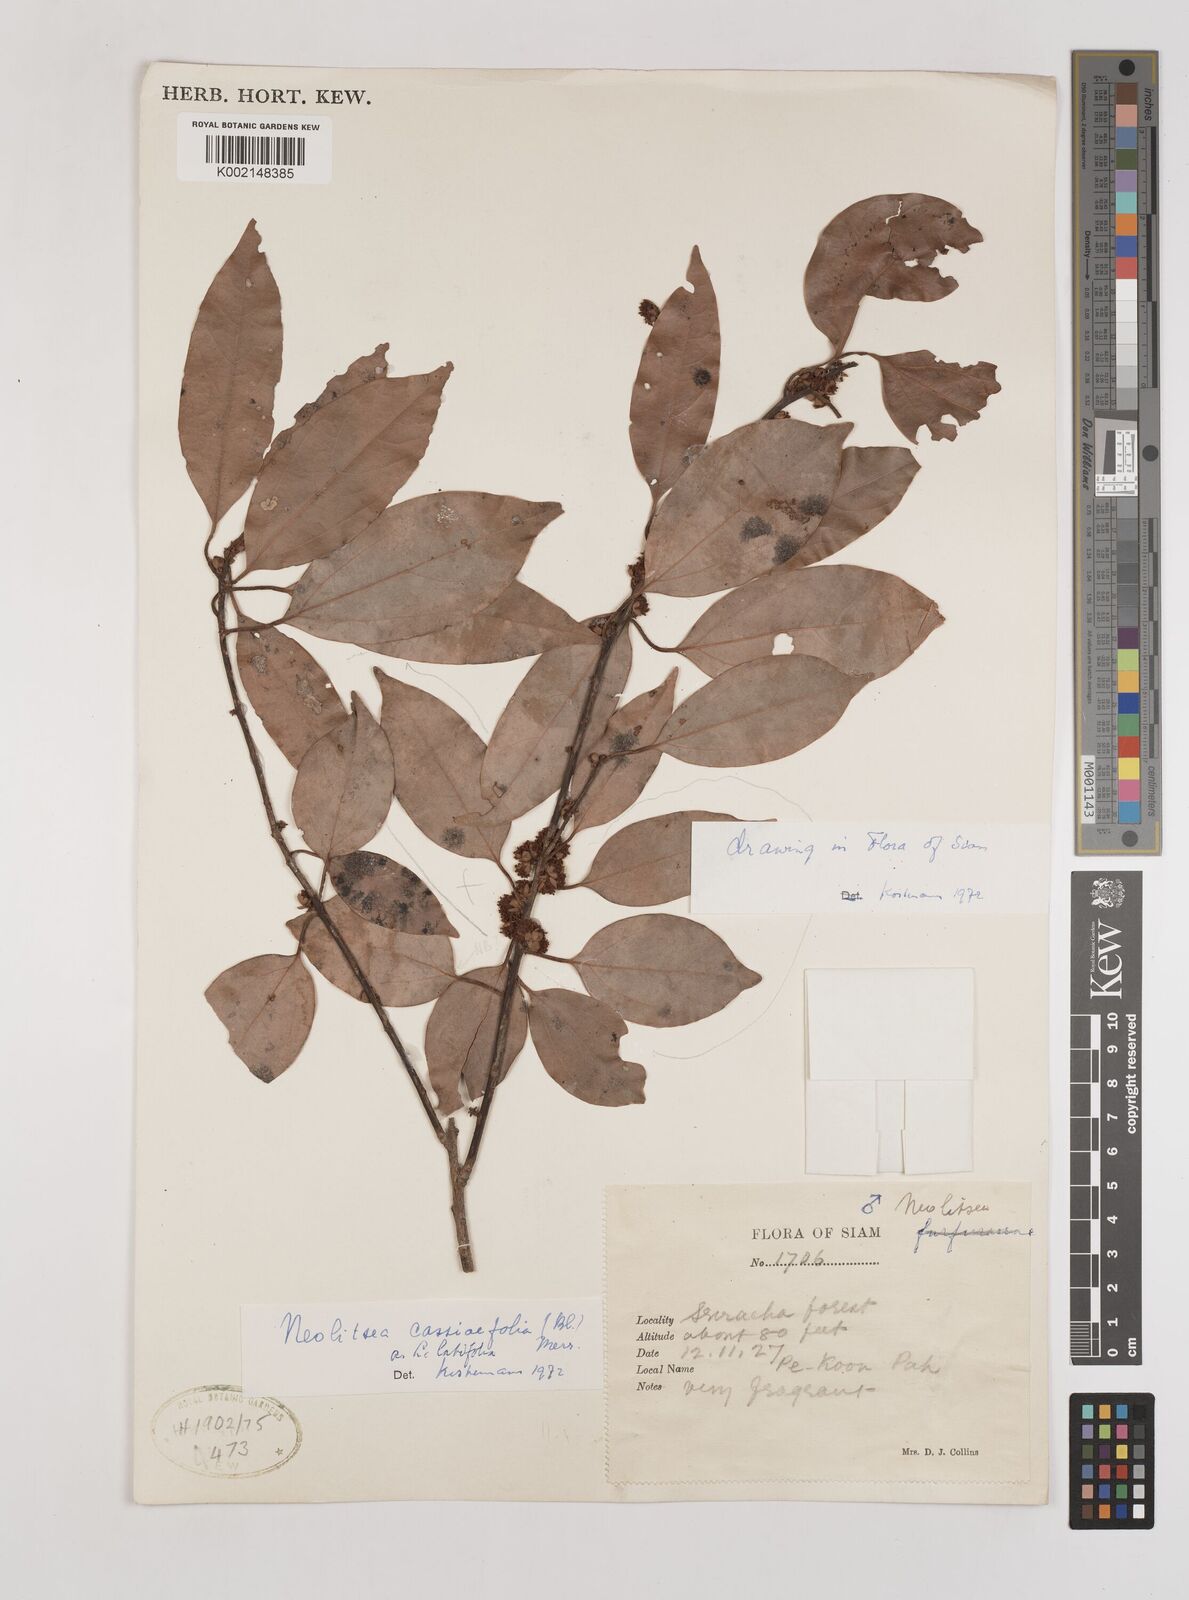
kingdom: Plantae
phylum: Tracheophyta
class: Magnoliopsida
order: Laurales
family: Lauraceae
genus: Neolitsea
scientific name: Neolitsea cassiifolia
